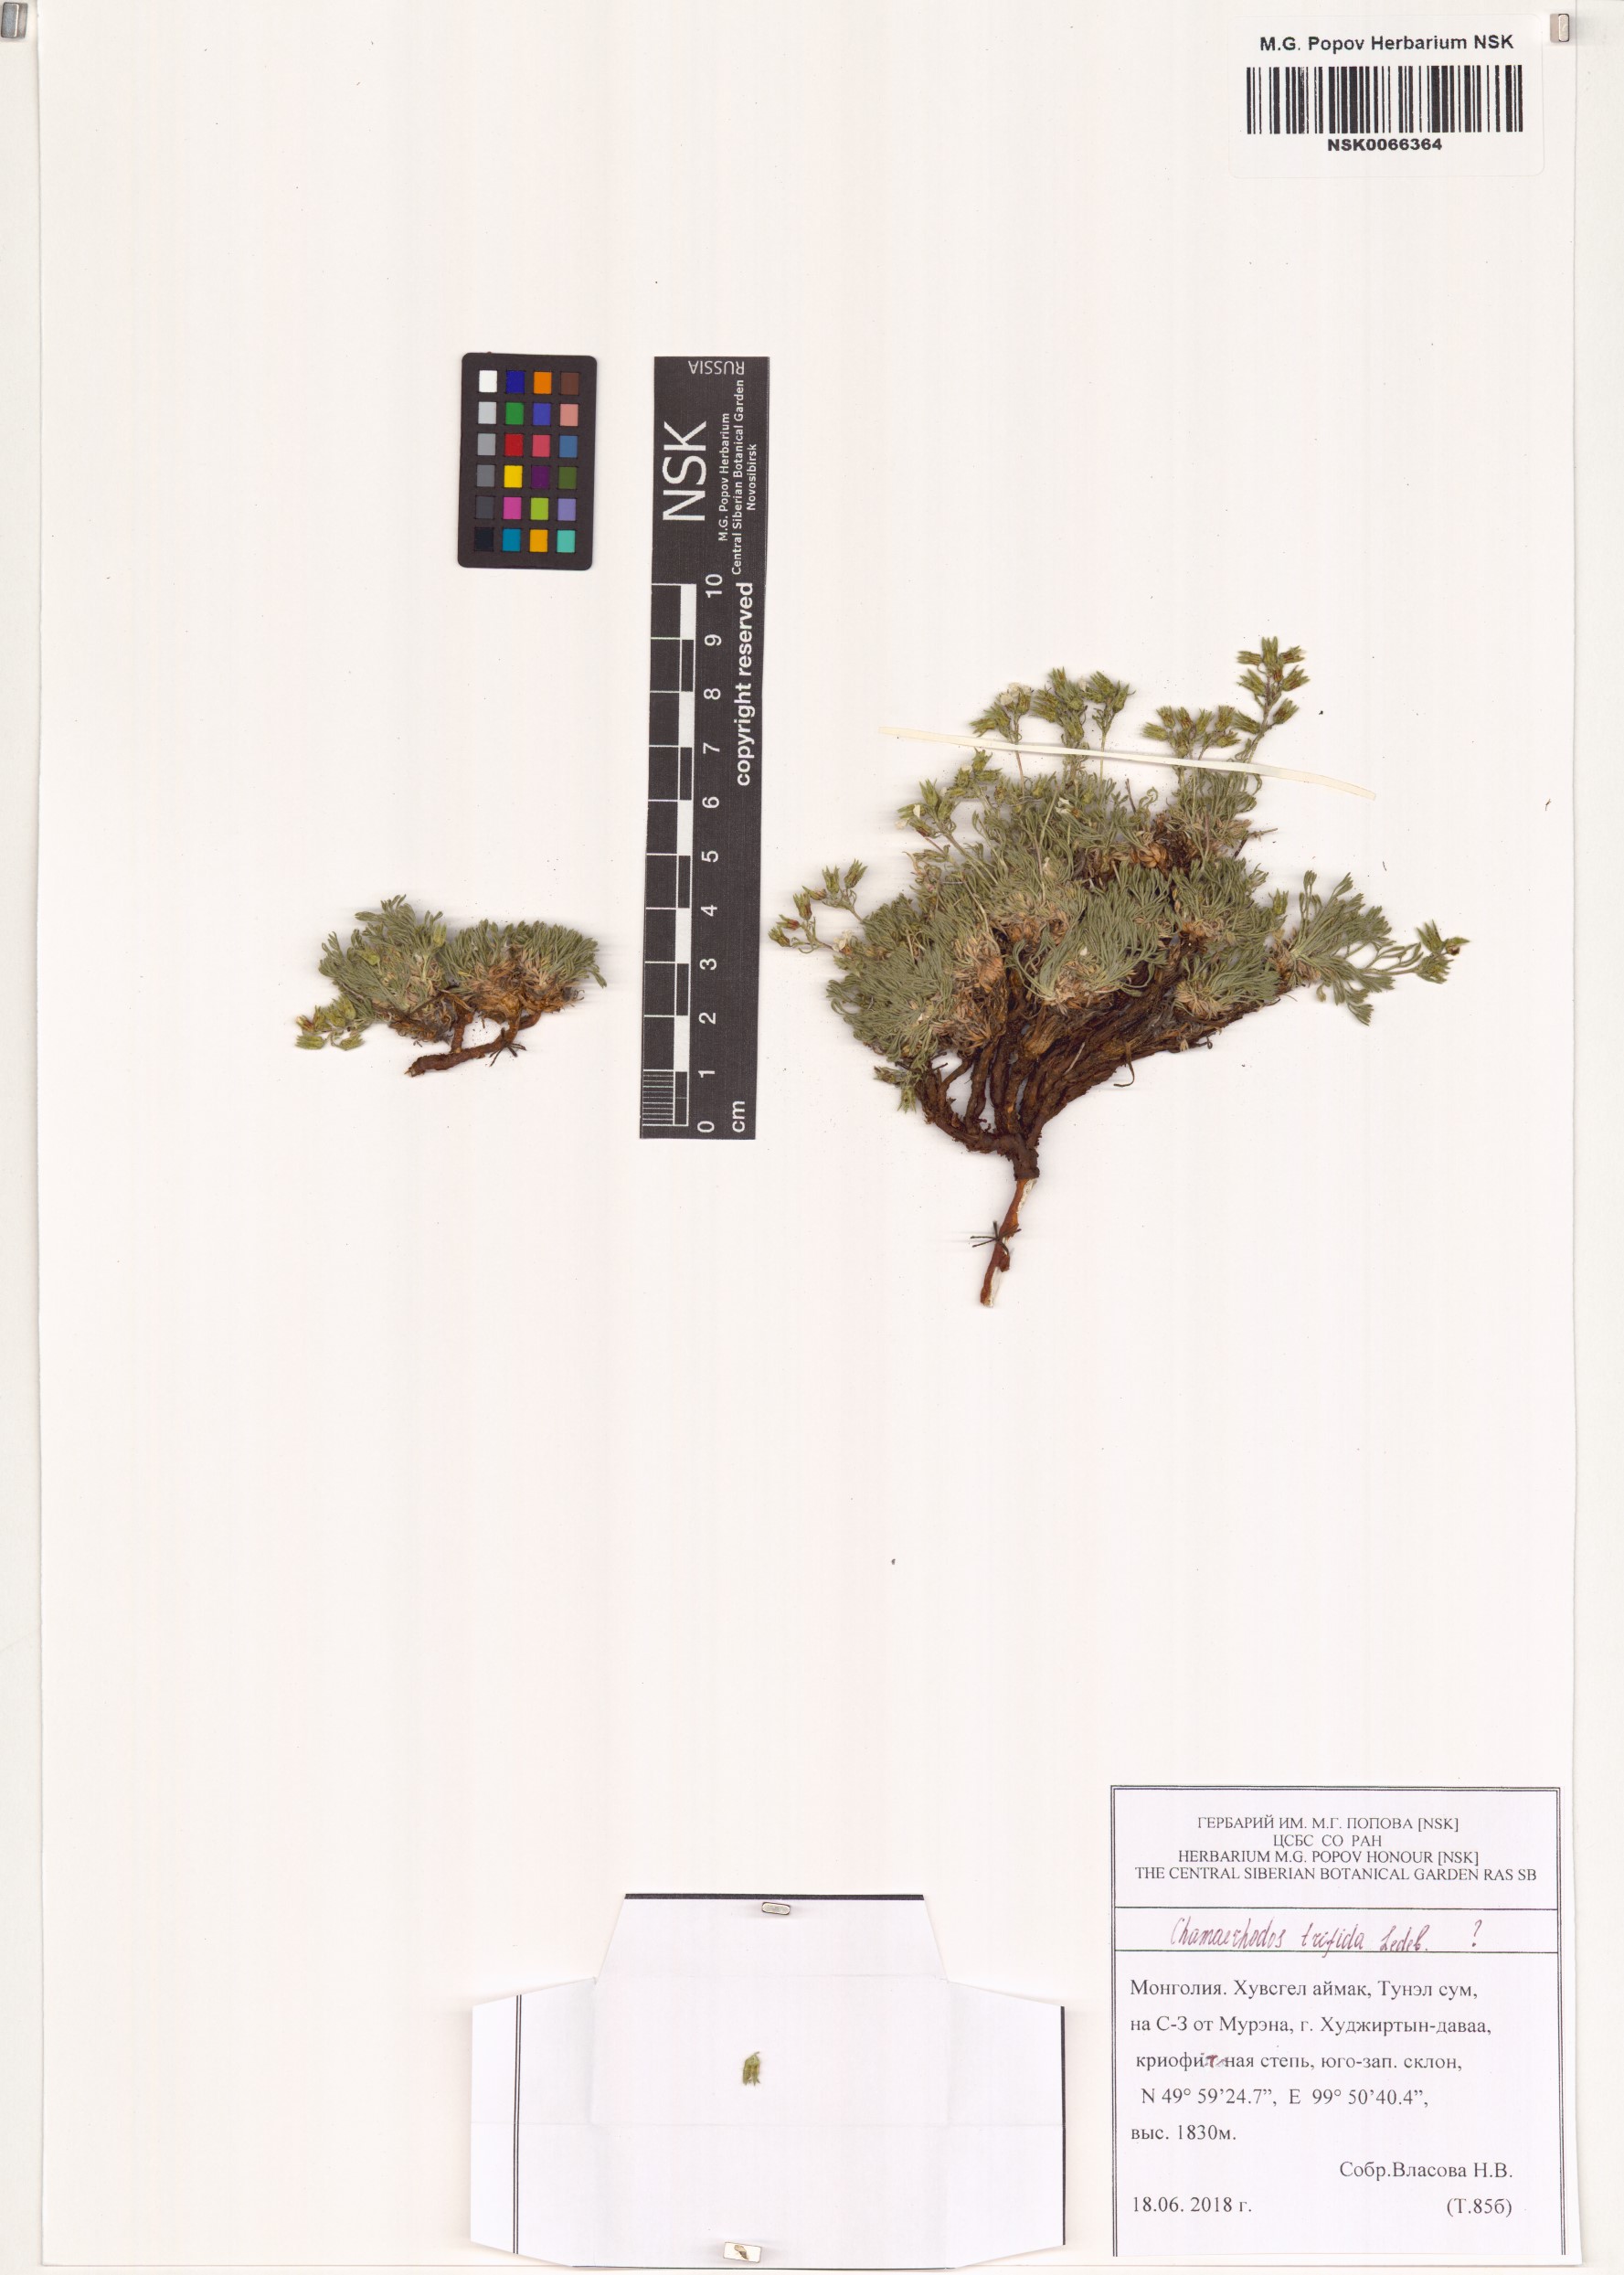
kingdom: Plantae
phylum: Tracheophyta
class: Magnoliopsida
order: Rosales
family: Rosaceae
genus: Chamaerhodos
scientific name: Chamaerhodos trifida
